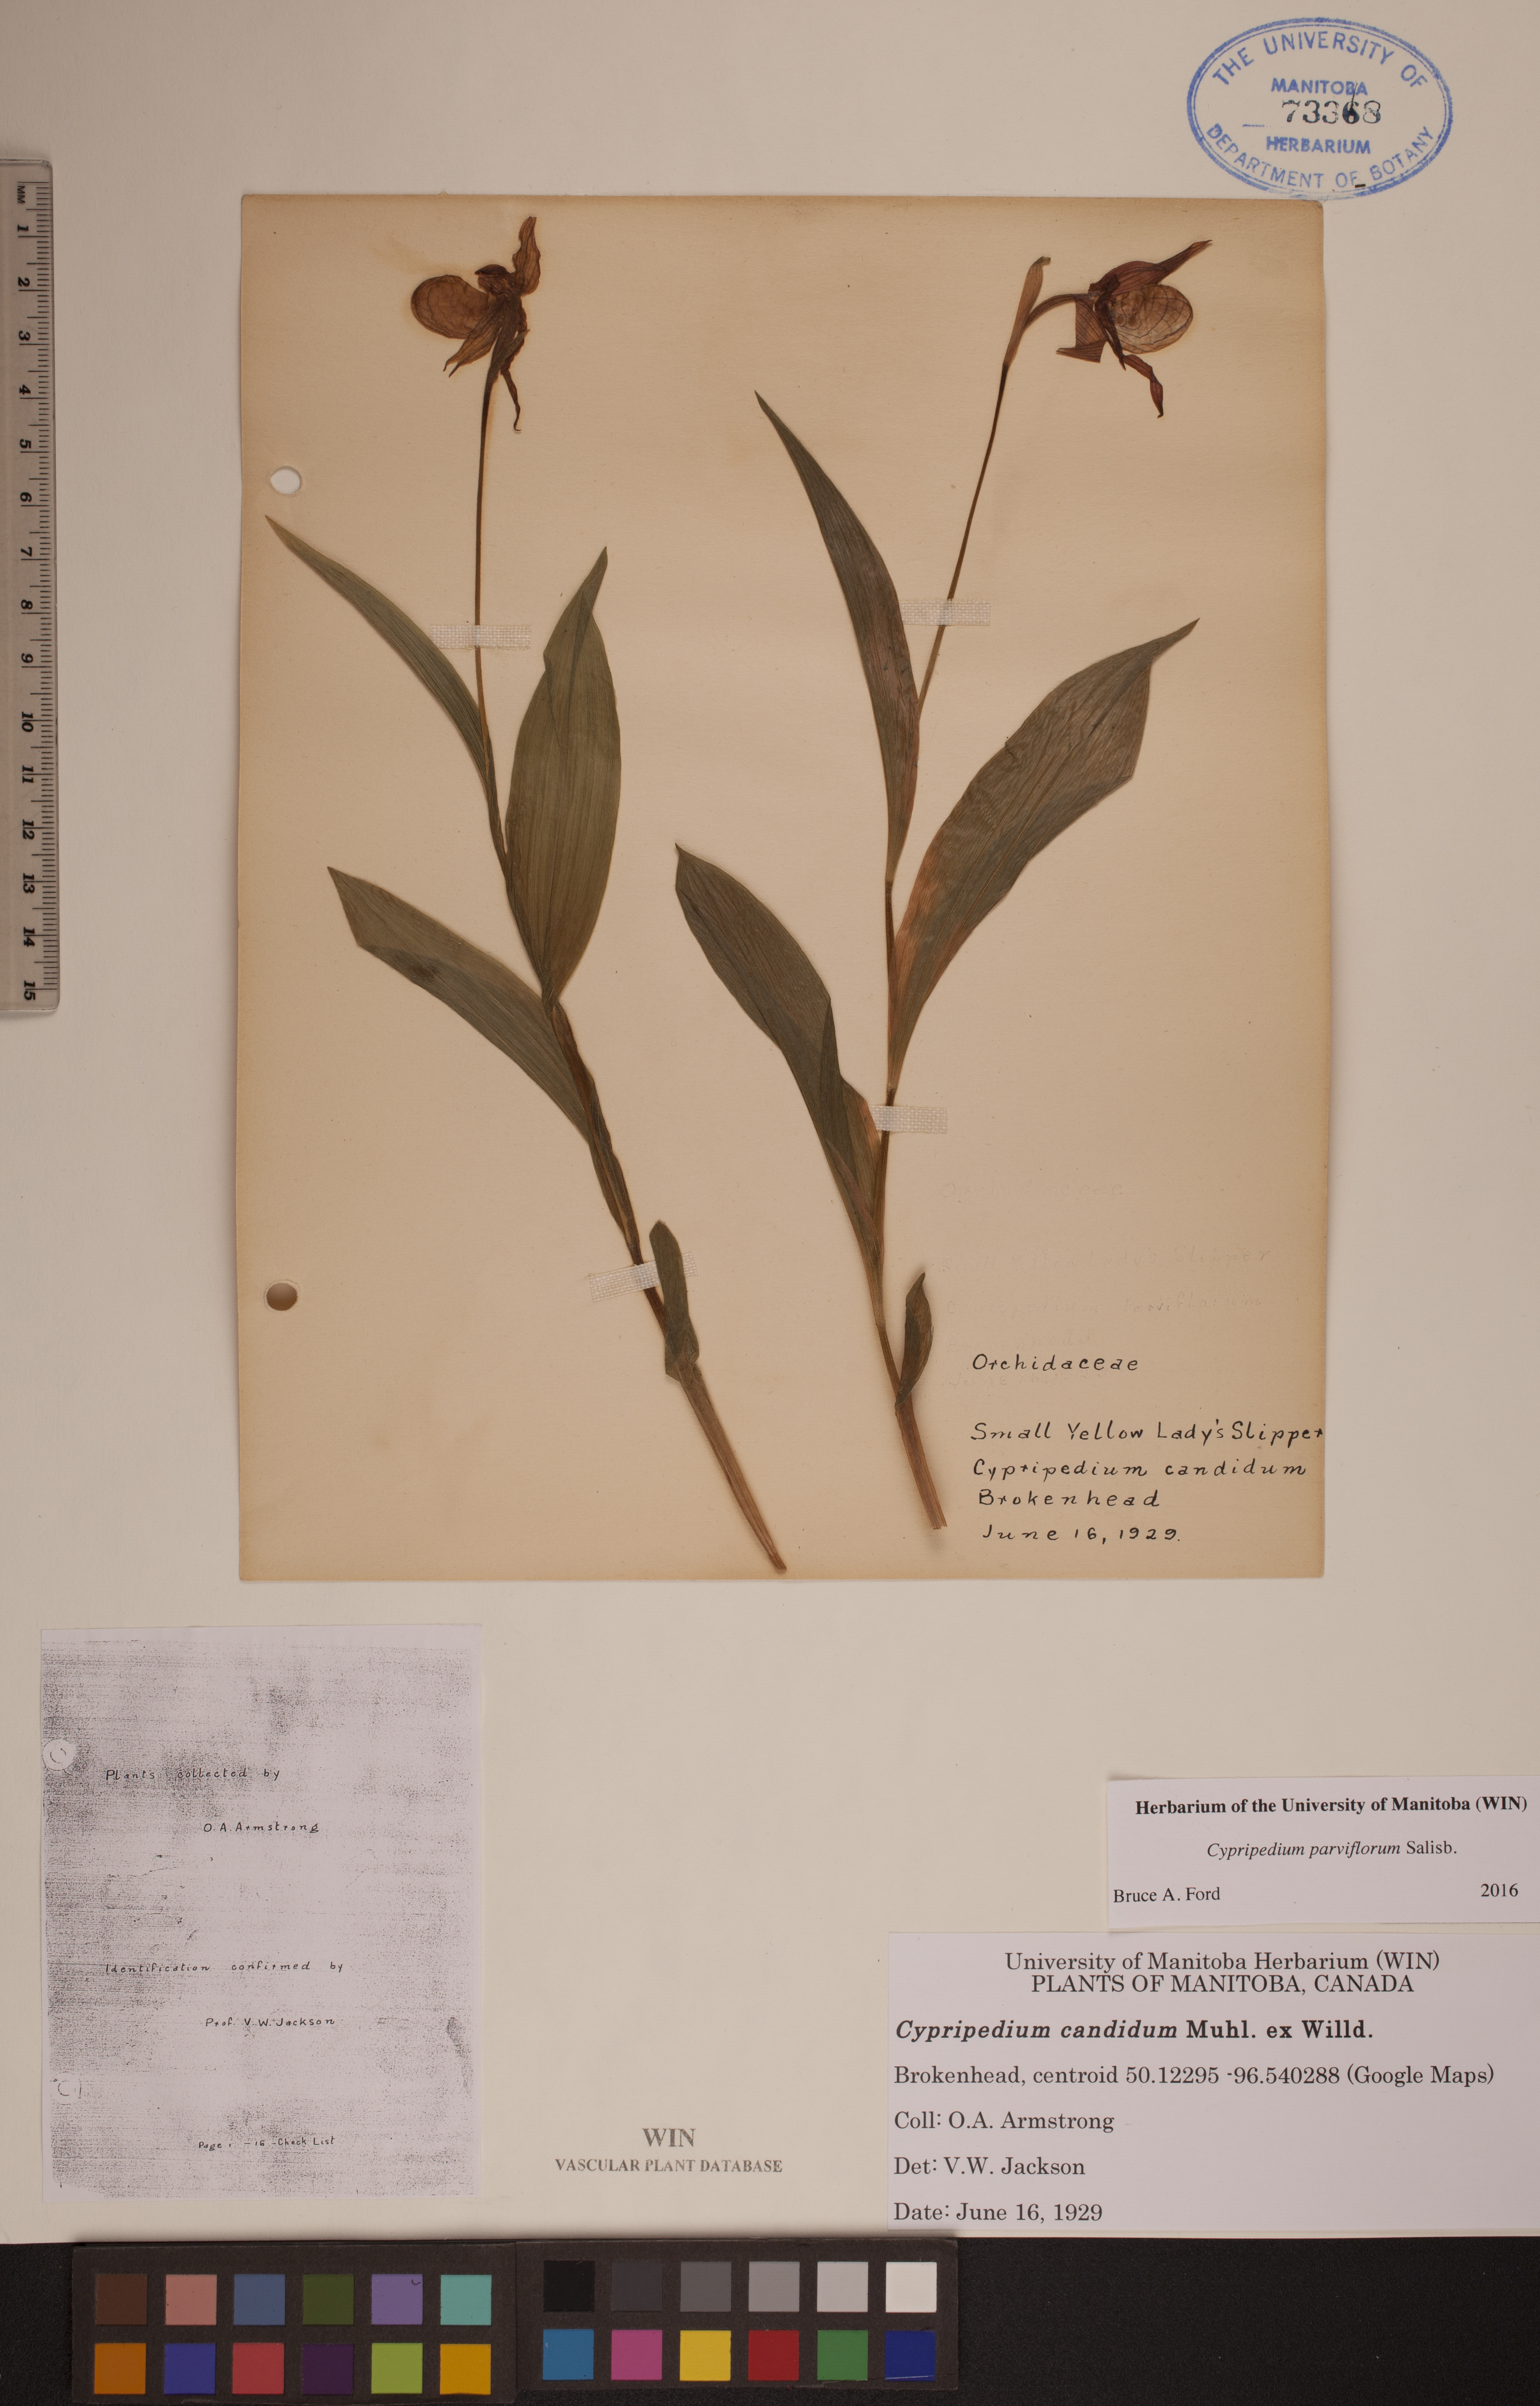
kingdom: Plantae
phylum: Tracheophyta
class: Liliopsida
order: Asparagales
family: Orchidaceae
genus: Cypripedium
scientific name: Cypripedium parviflorum
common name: American yellow lady's-slipper
